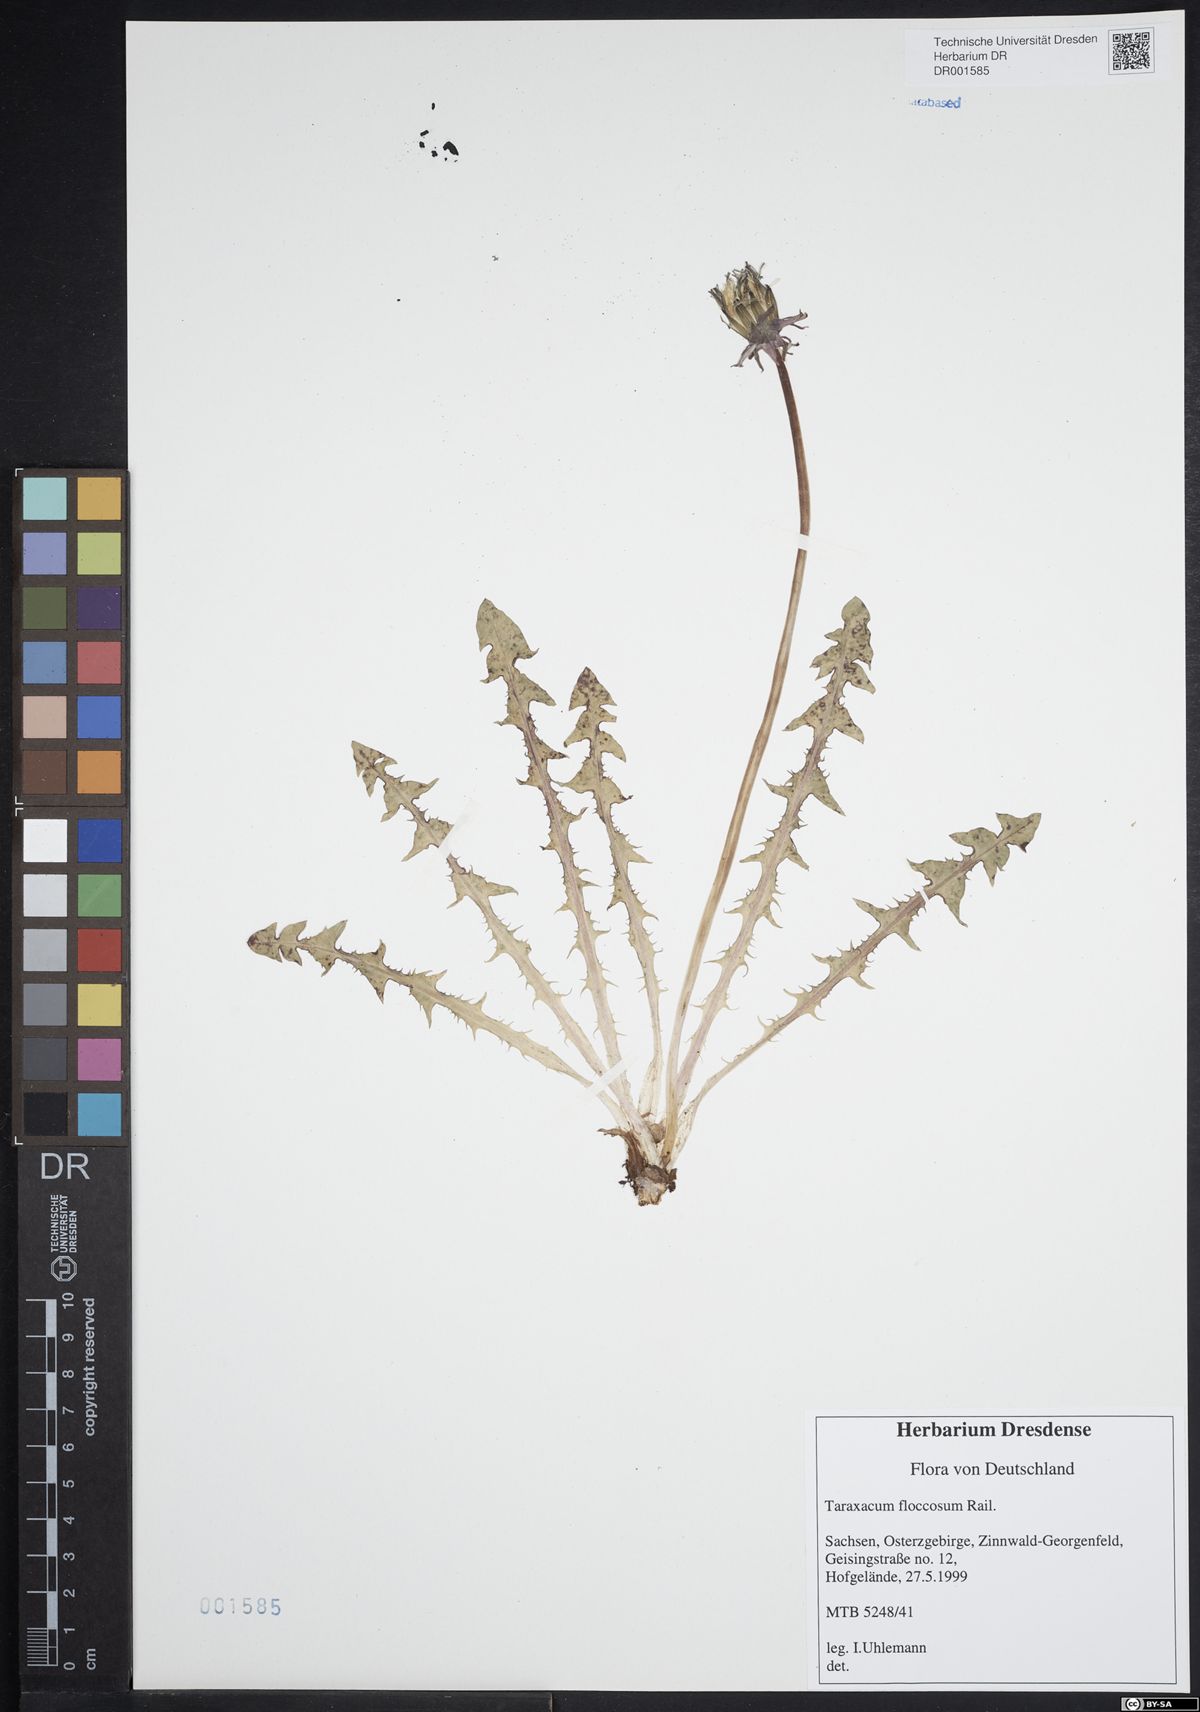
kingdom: Plantae
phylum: Tracheophyta
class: Magnoliopsida
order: Asterales
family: Asteraceae
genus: Taraxacum
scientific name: Taraxacum floccosum
